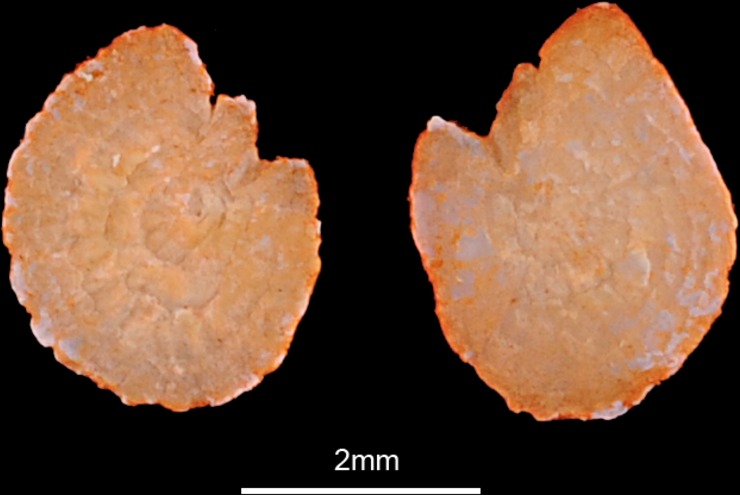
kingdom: Animalia
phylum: Chordata
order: Cypriniformes
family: Cyprinidae
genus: Oreoleuciscus
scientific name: Oreoleuciscus potanini
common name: Altai osman
